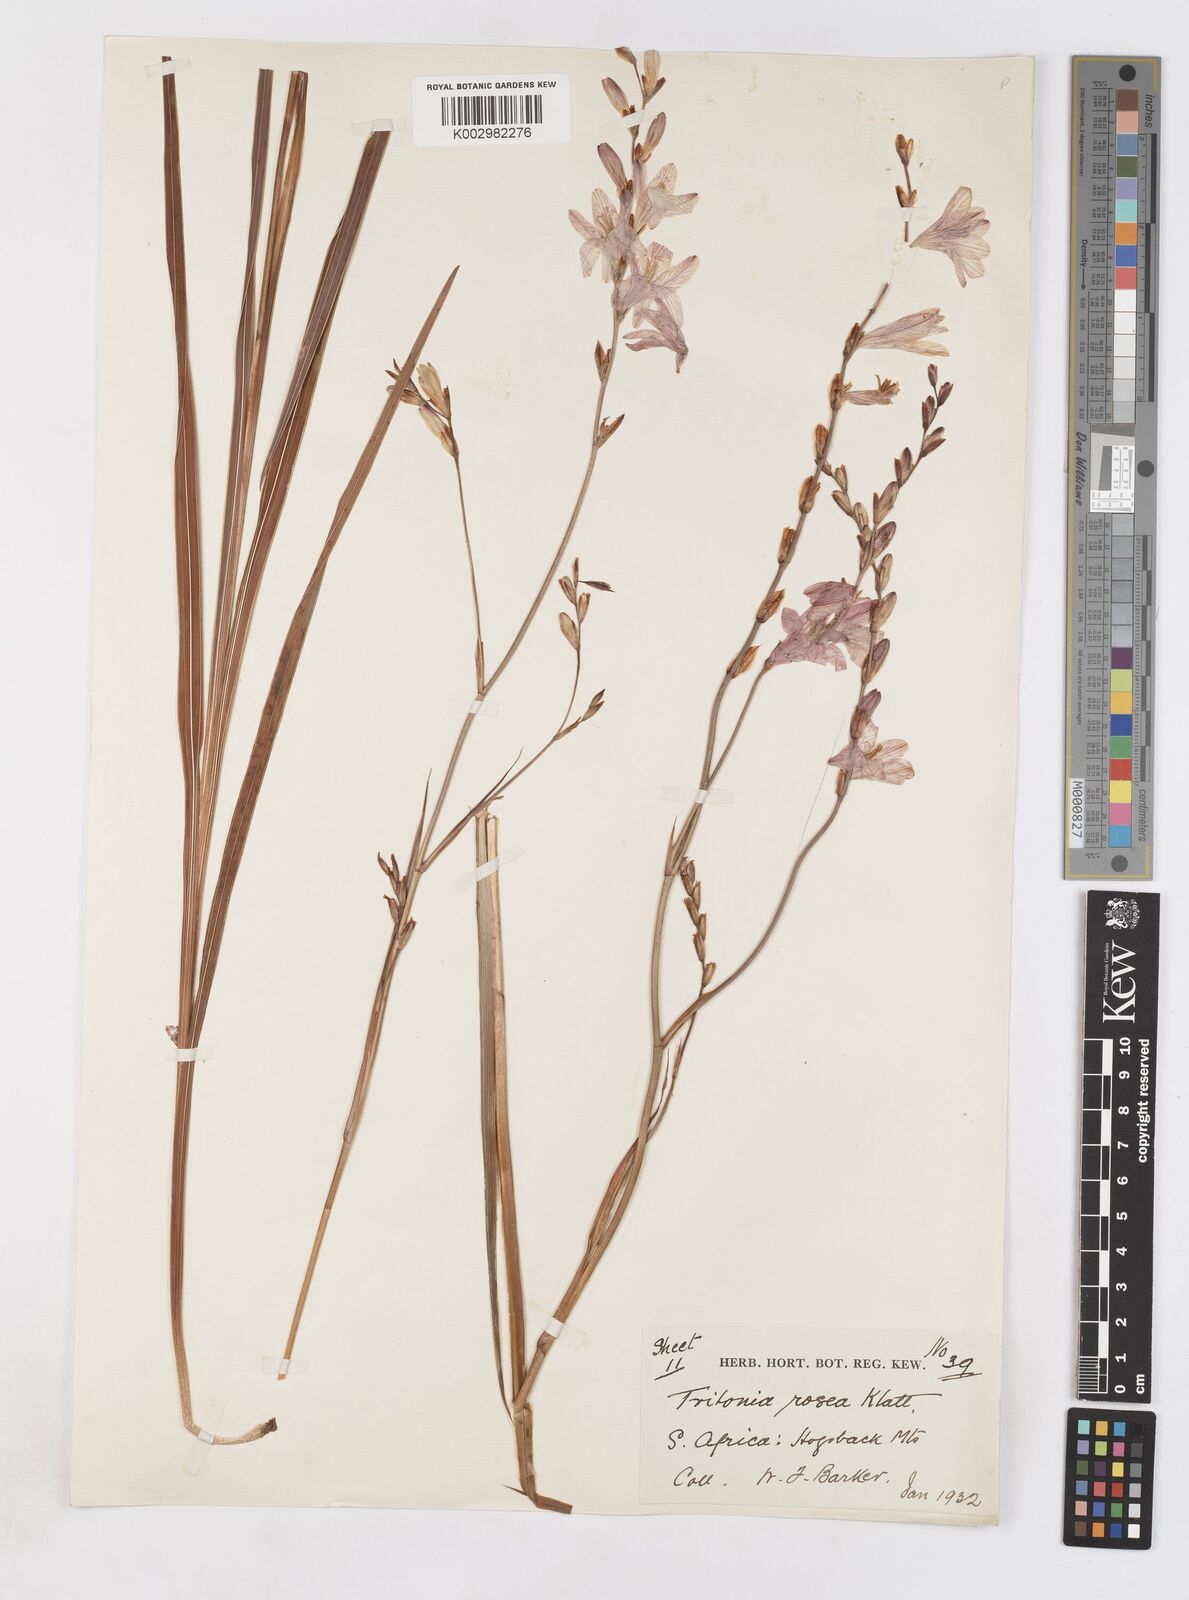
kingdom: Plantae
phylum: Tracheophyta
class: Liliopsida
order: Asparagales
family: Iridaceae
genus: Tritonia
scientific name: Tritonia
